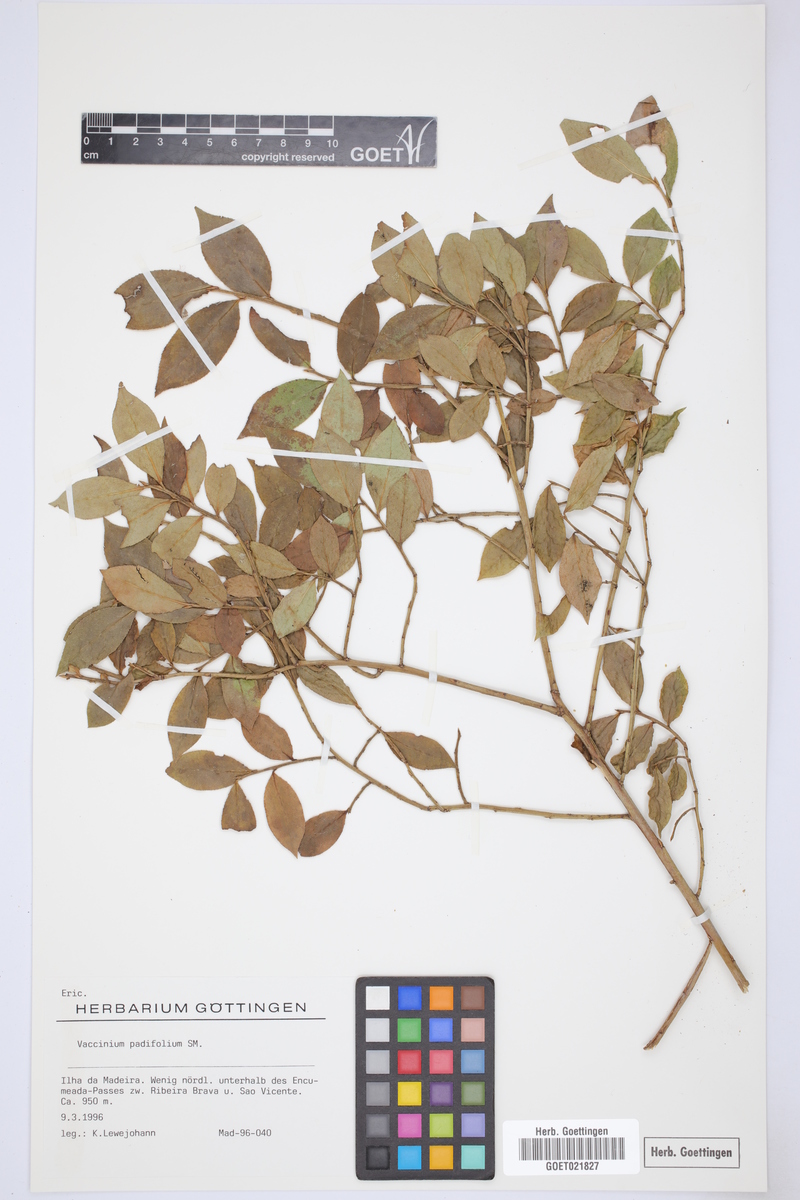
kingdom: Plantae
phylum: Tracheophyta
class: Magnoliopsida
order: Ericales
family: Ericaceae
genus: Vaccinium
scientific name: Vaccinium padifolium
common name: Madeiran blueberry
